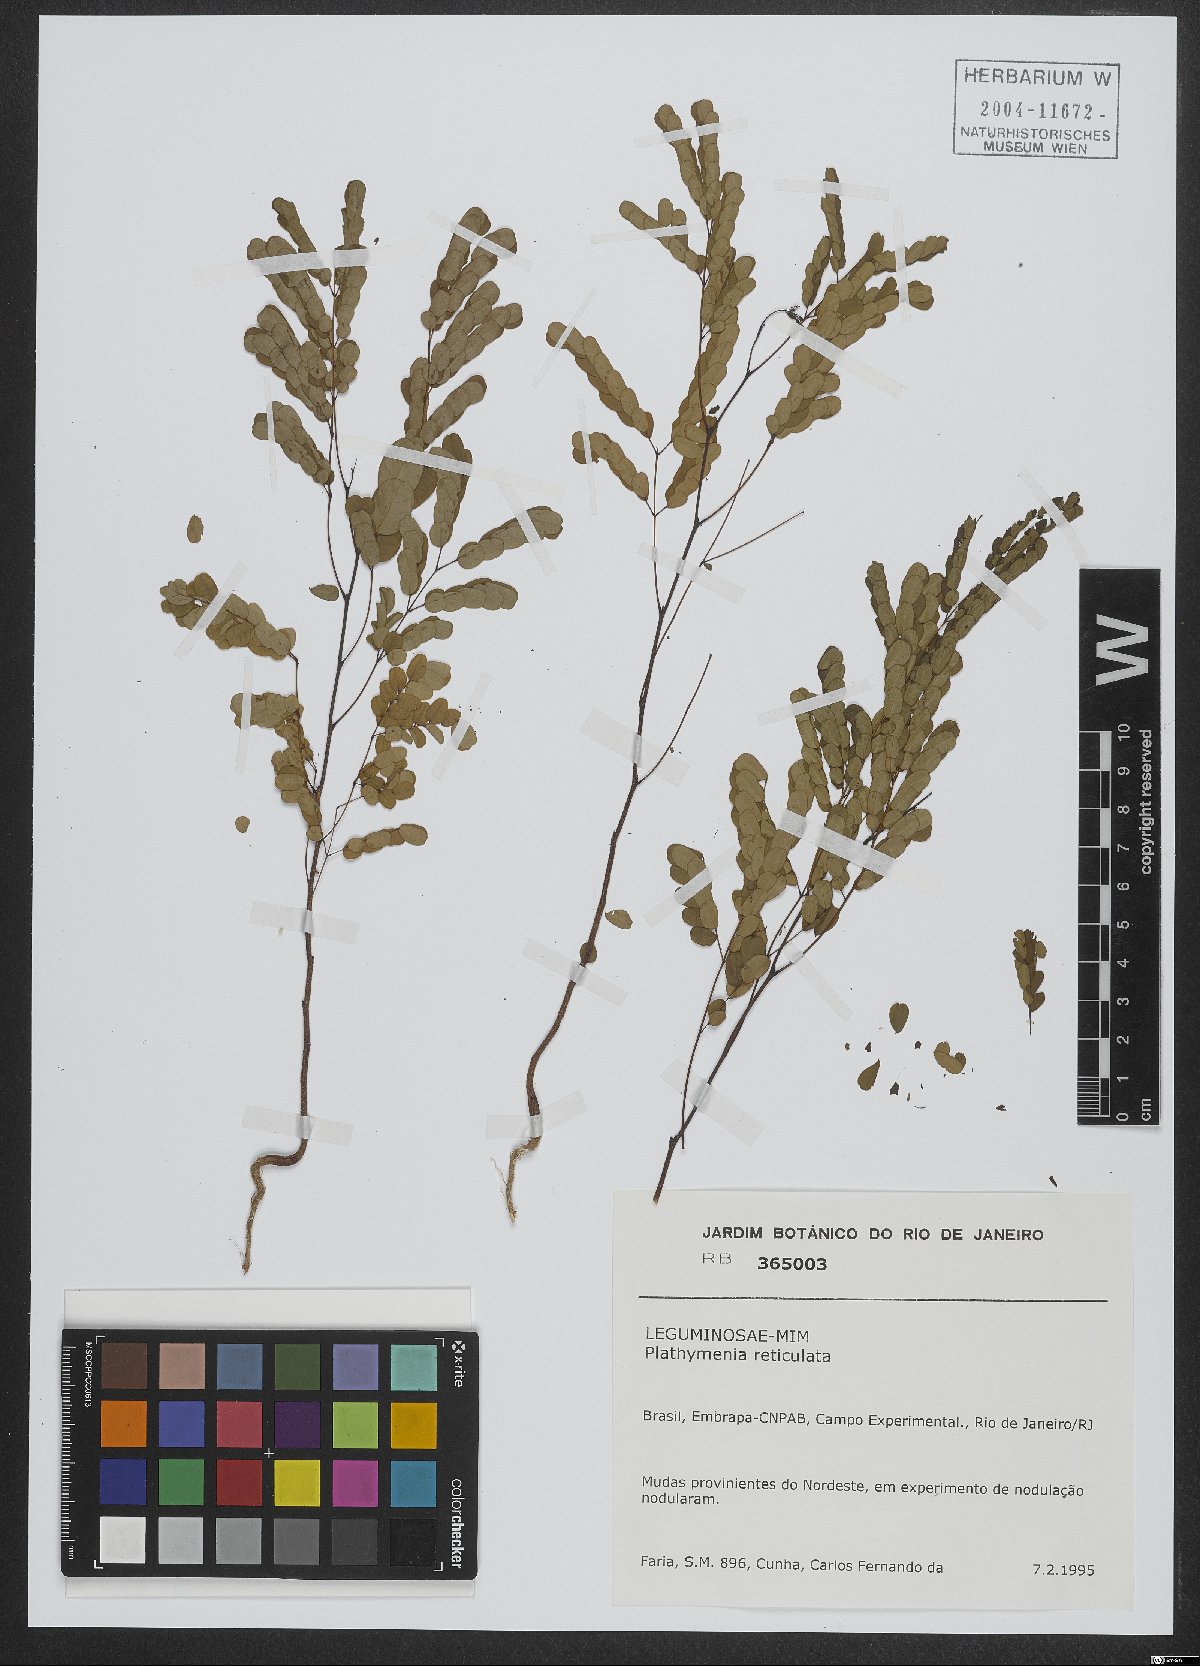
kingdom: Plantae
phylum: Tracheophyta
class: Magnoliopsida
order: Fabales
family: Fabaceae
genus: Plathymenia
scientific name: Plathymenia reticulata
